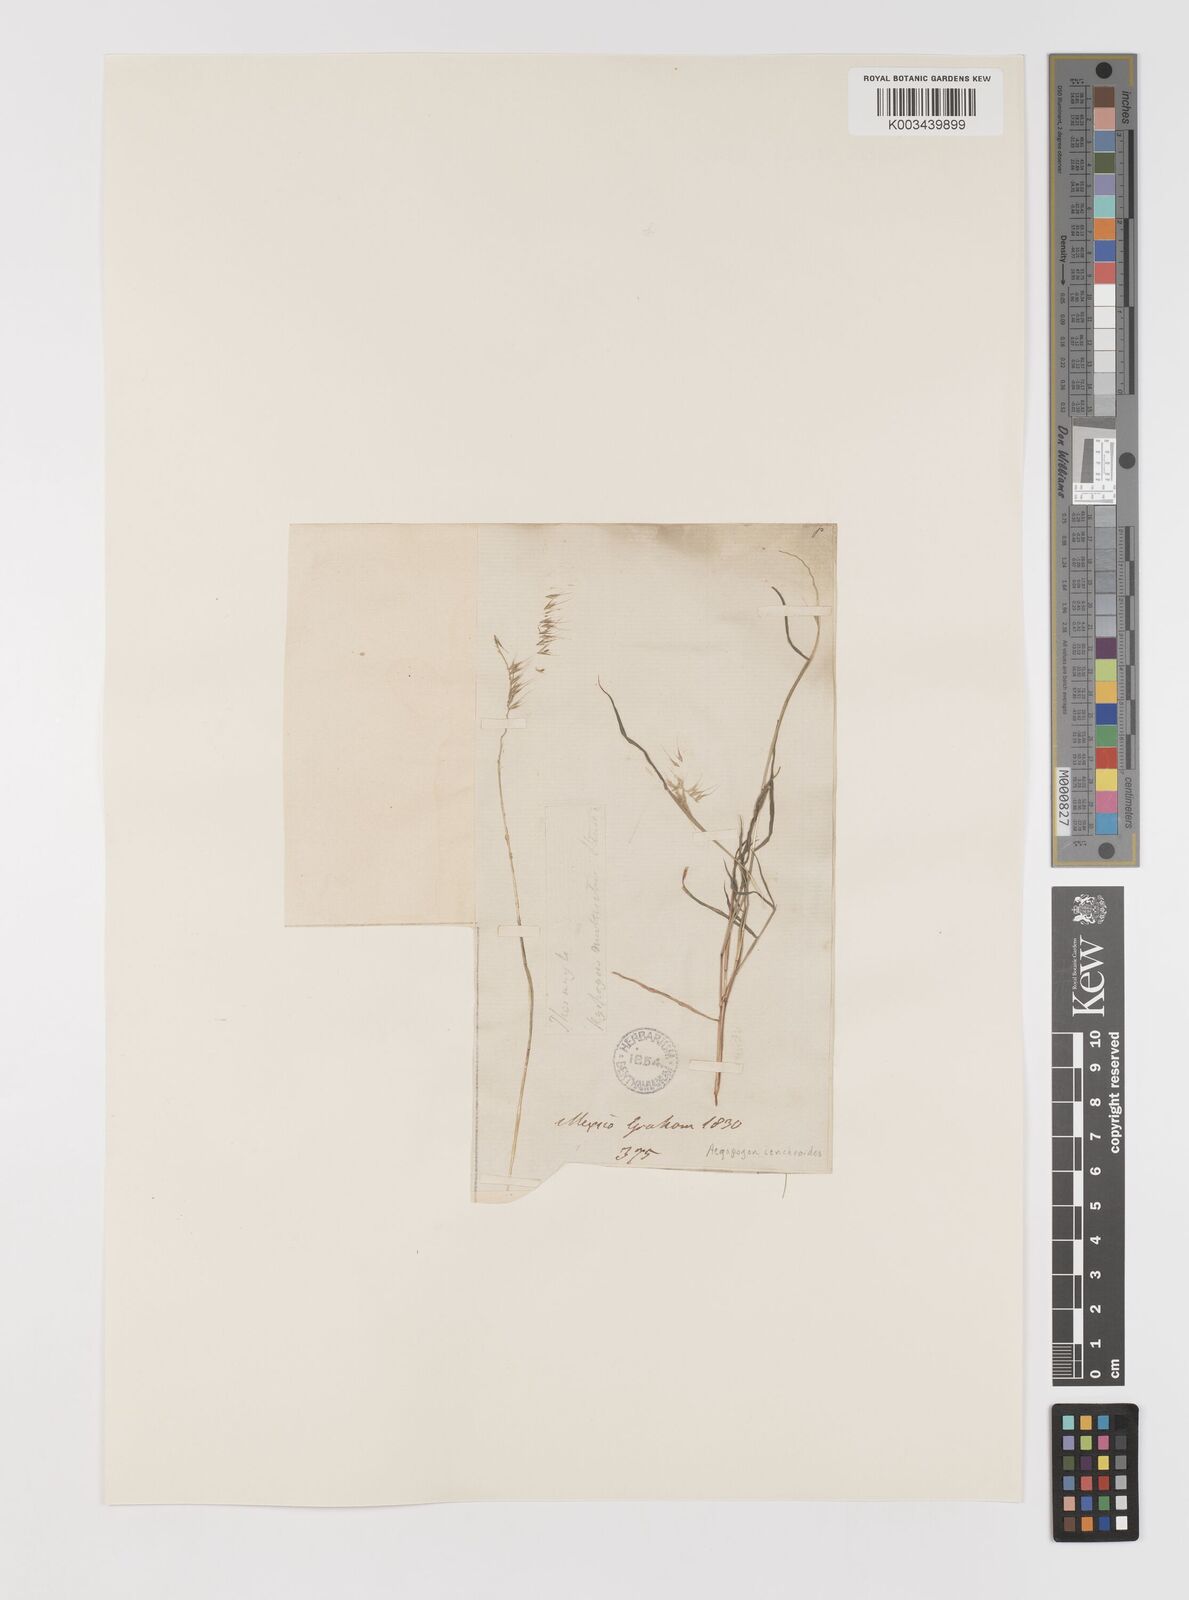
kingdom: Plantae
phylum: Tracheophyta
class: Liliopsida
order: Poales
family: Poaceae
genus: Muhlenbergia
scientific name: Muhlenbergia cenchroides
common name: Relaxgrass
